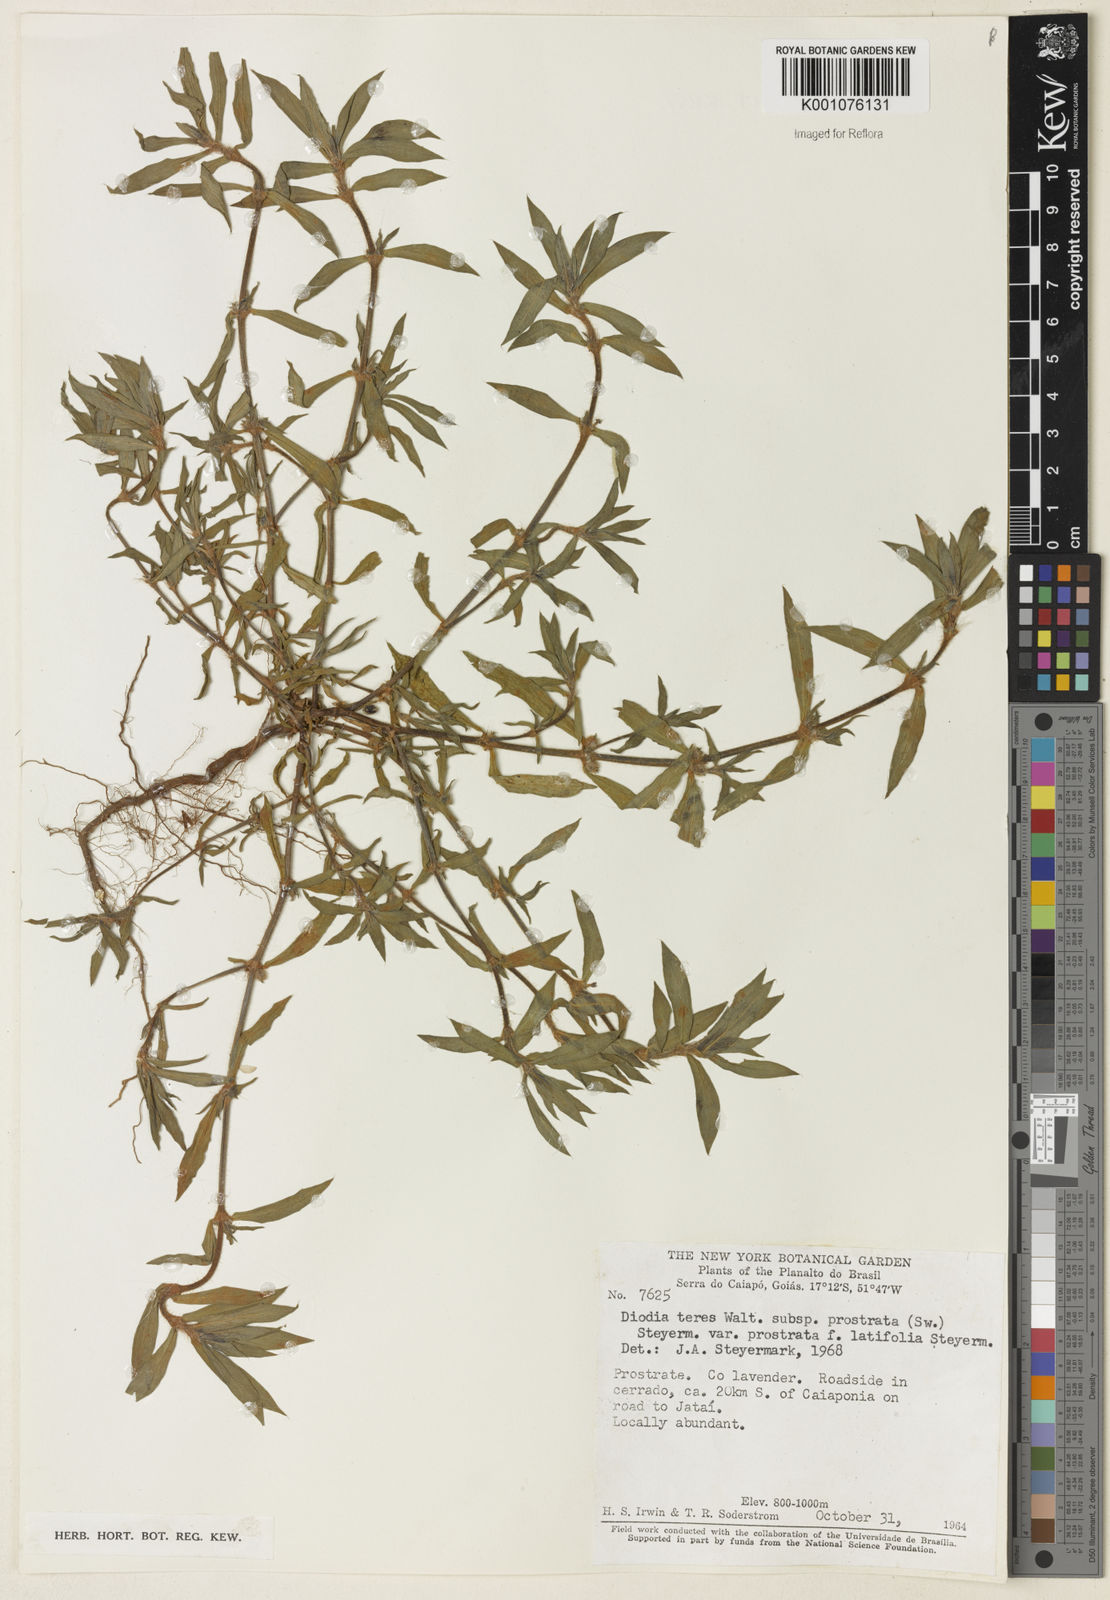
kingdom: Plantae
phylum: Tracheophyta
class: Magnoliopsida
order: Gentianales
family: Rubiaceae
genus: Hexasepalum
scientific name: Hexasepalum teres
